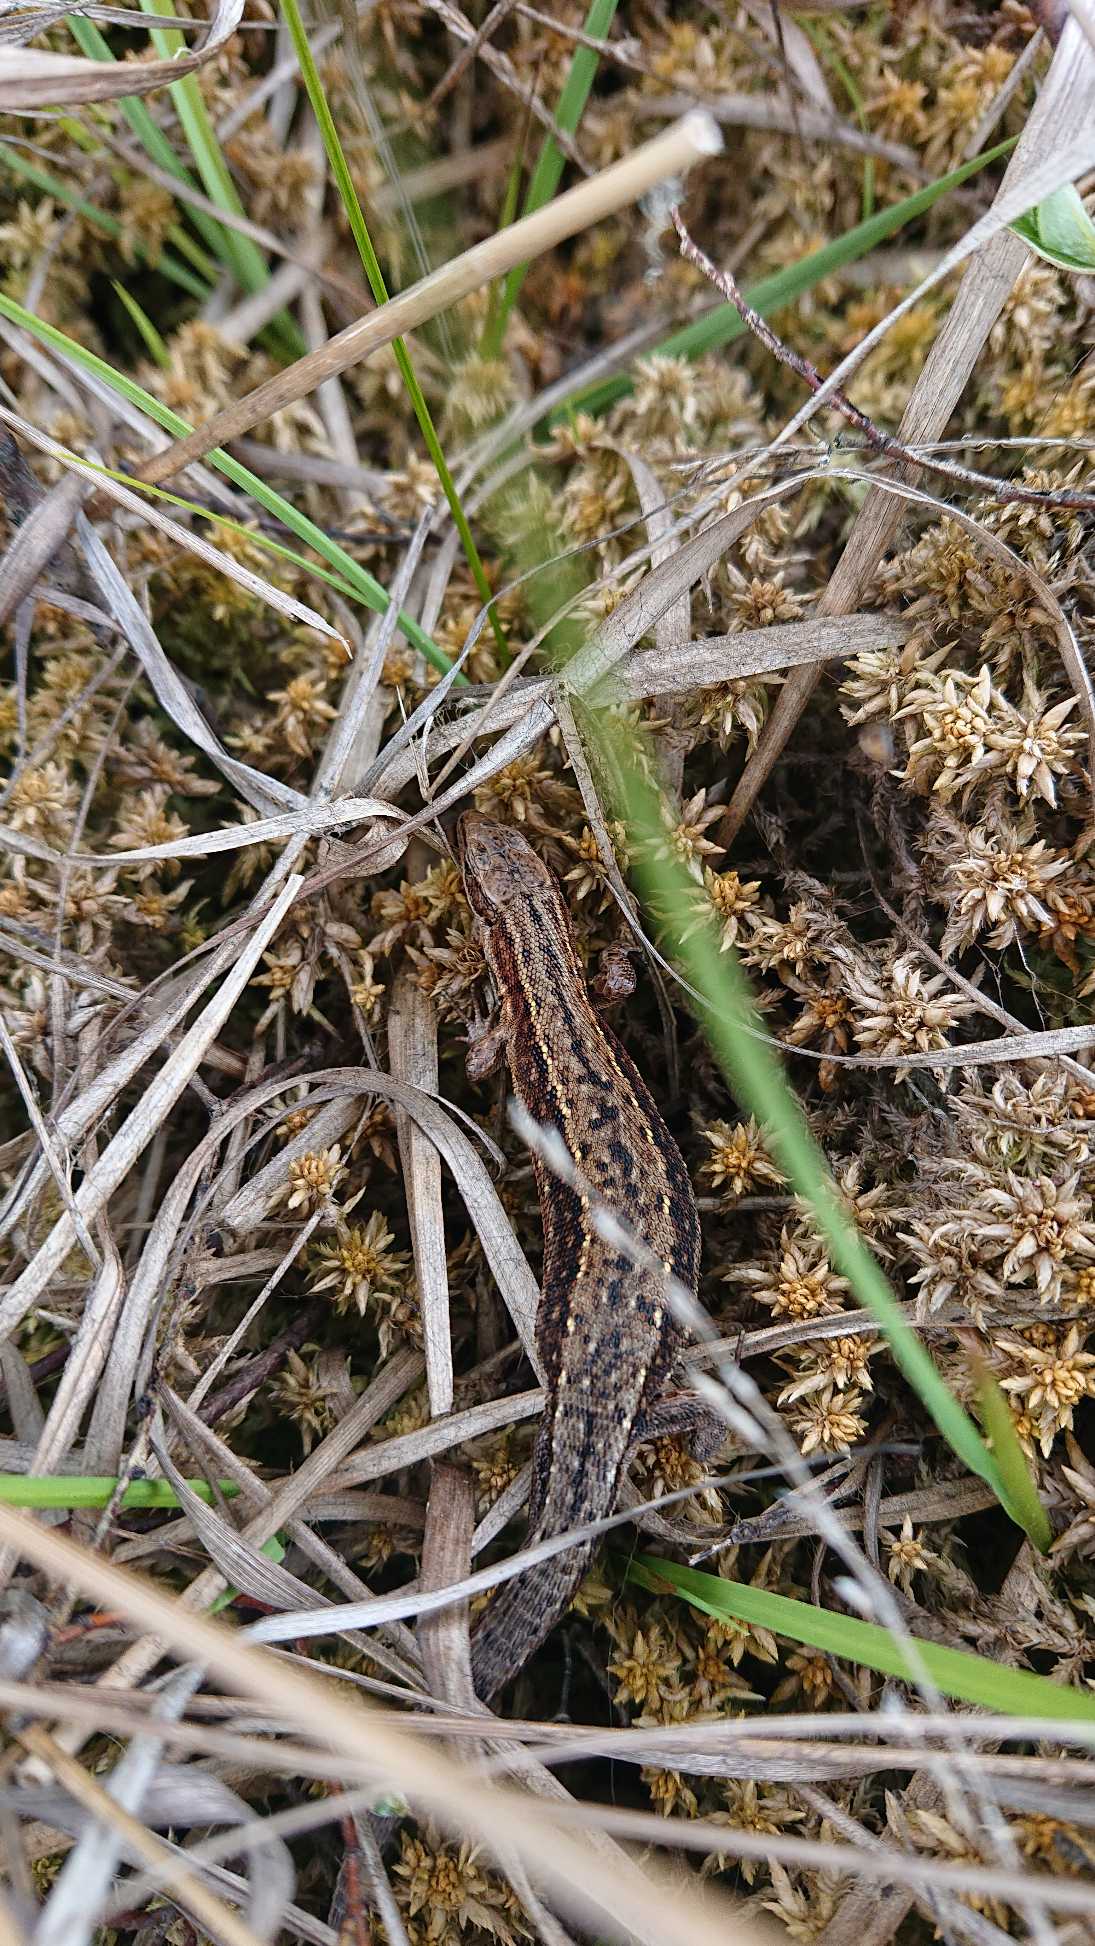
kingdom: Animalia
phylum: Chordata
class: Squamata
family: Lacertidae
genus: Zootoca
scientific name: Zootoca vivipara
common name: Skovfirben
